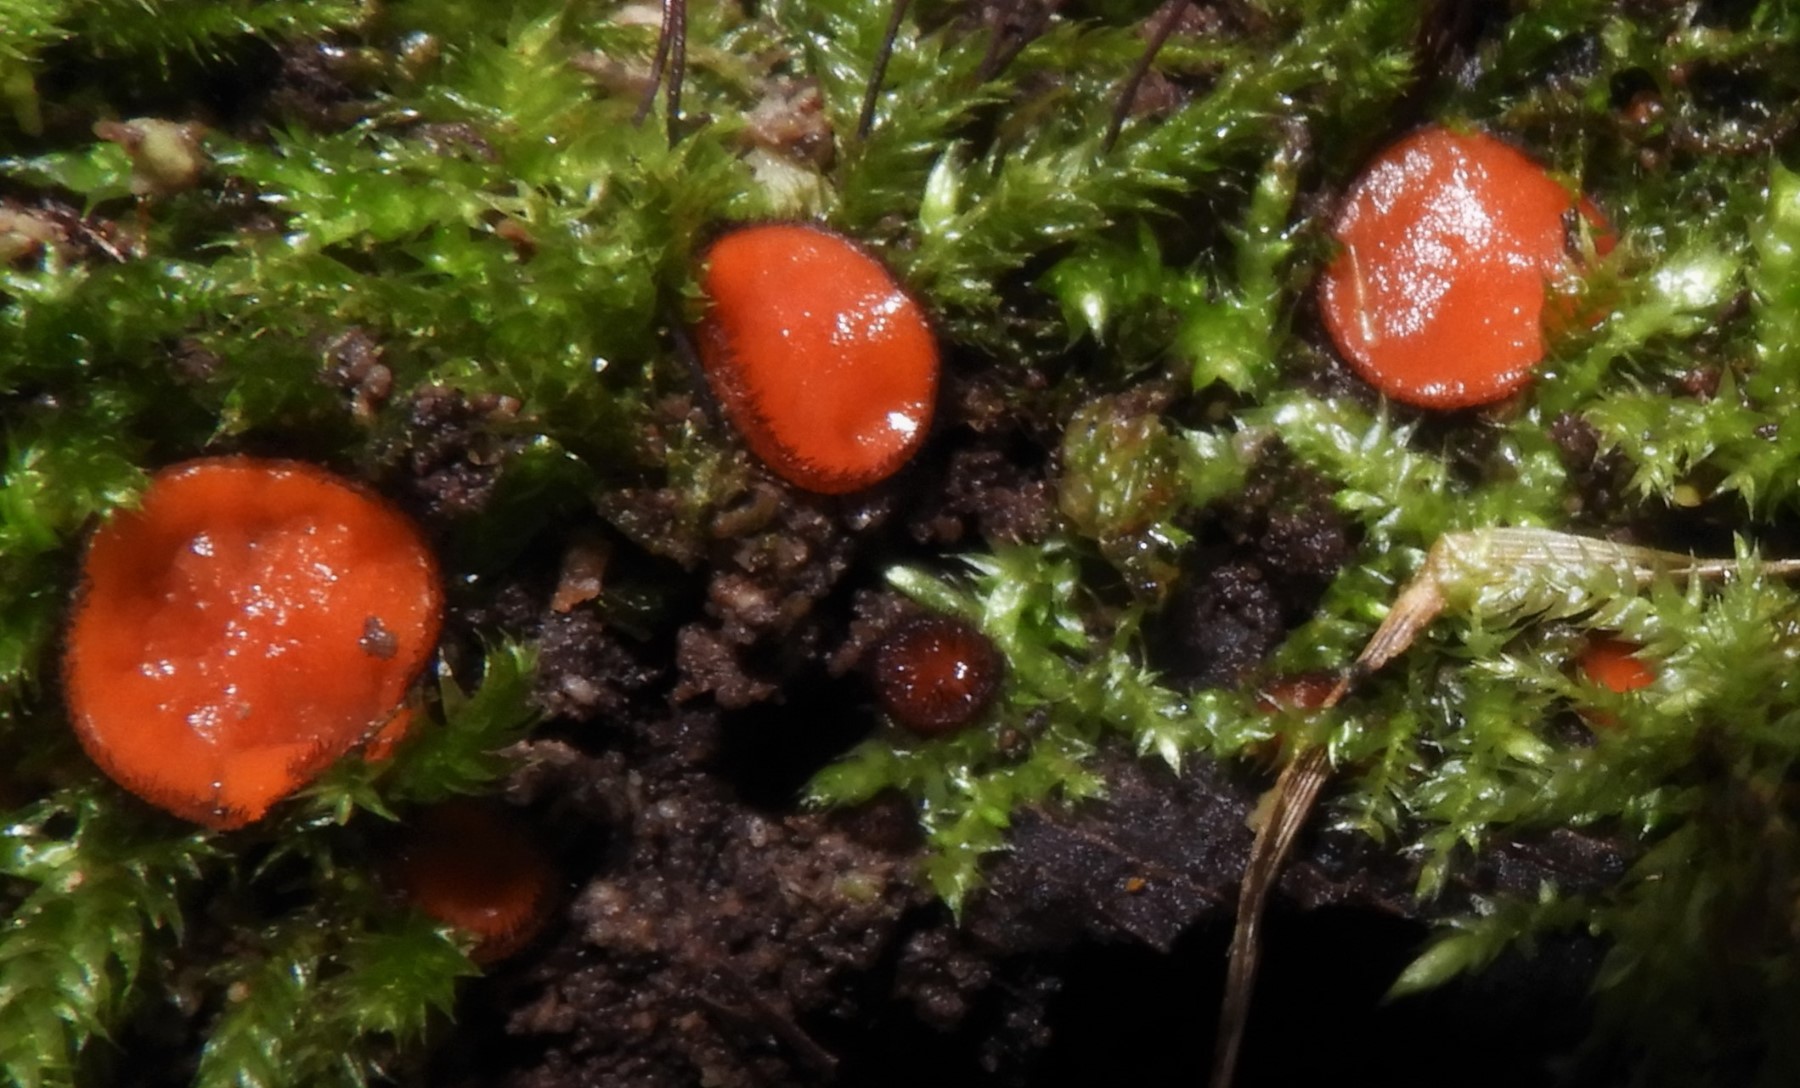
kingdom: Fungi
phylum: Ascomycota
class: Pezizomycetes
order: Pezizales
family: Pyronemataceae
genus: Scutellinia
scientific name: Scutellinia
